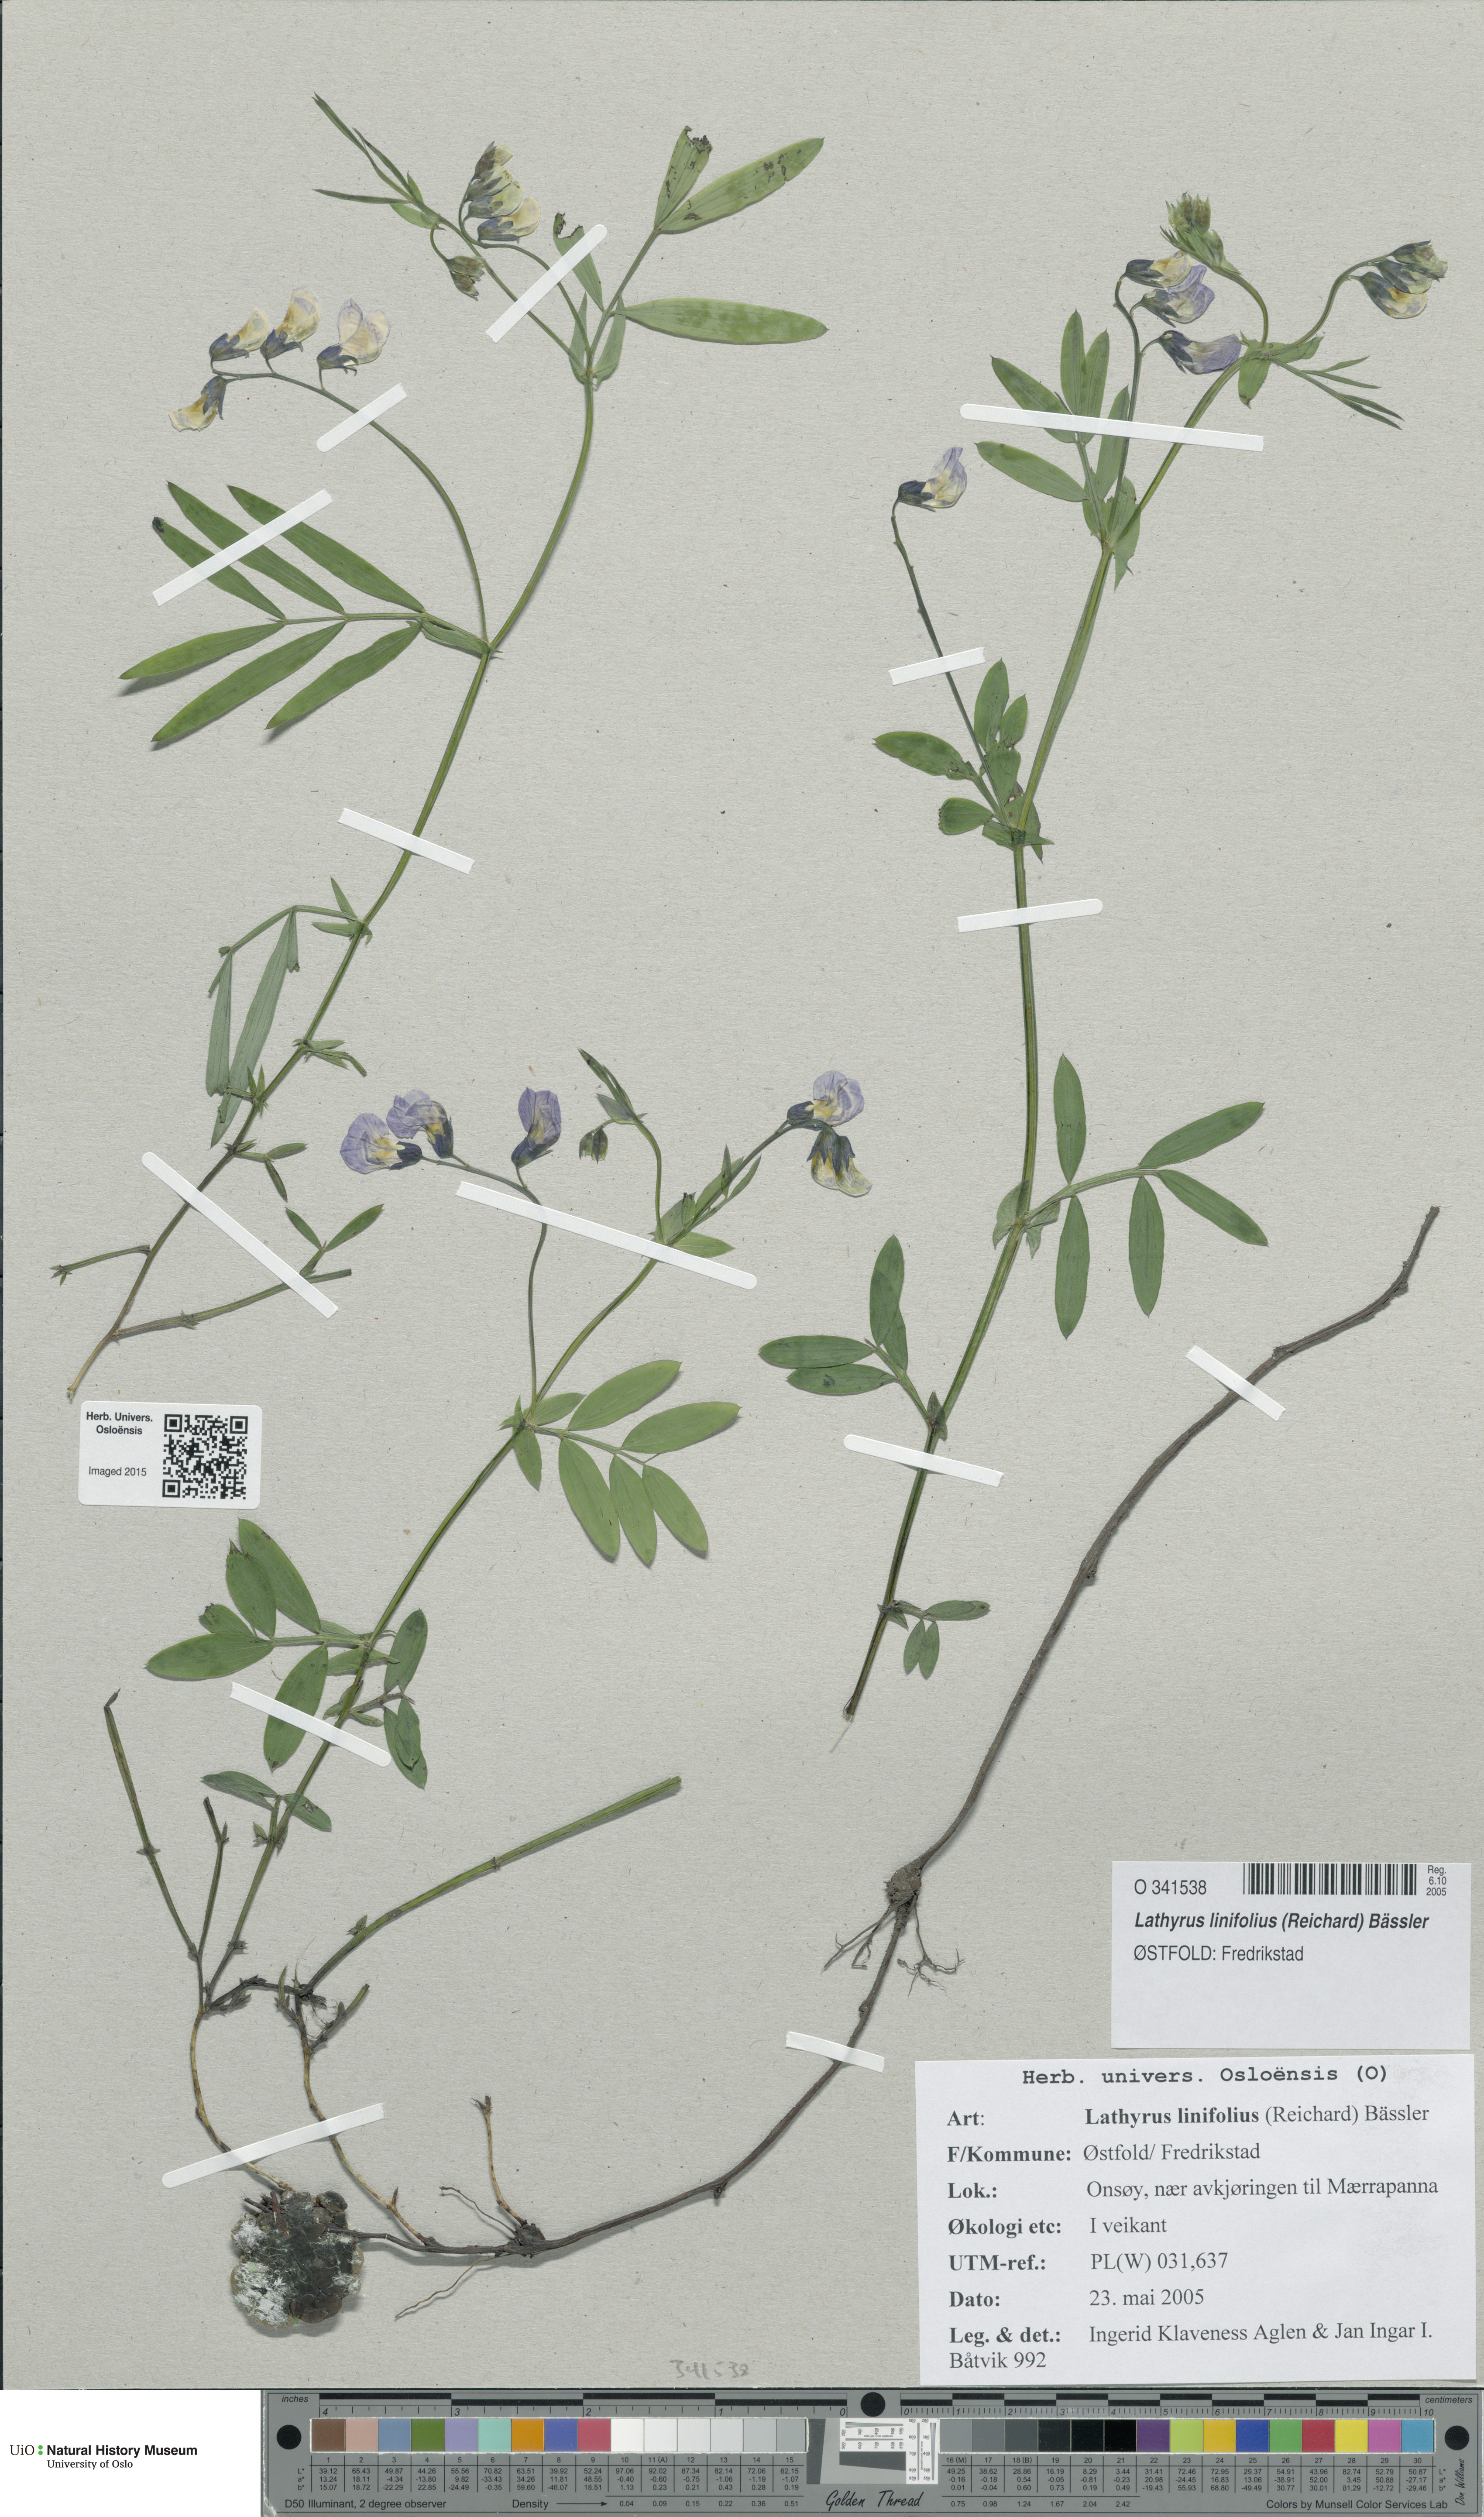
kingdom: Plantae
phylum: Tracheophyta
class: Magnoliopsida
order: Fabales
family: Fabaceae
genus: Lathyrus
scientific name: Lathyrus linifolius
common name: Bitter-vetch
